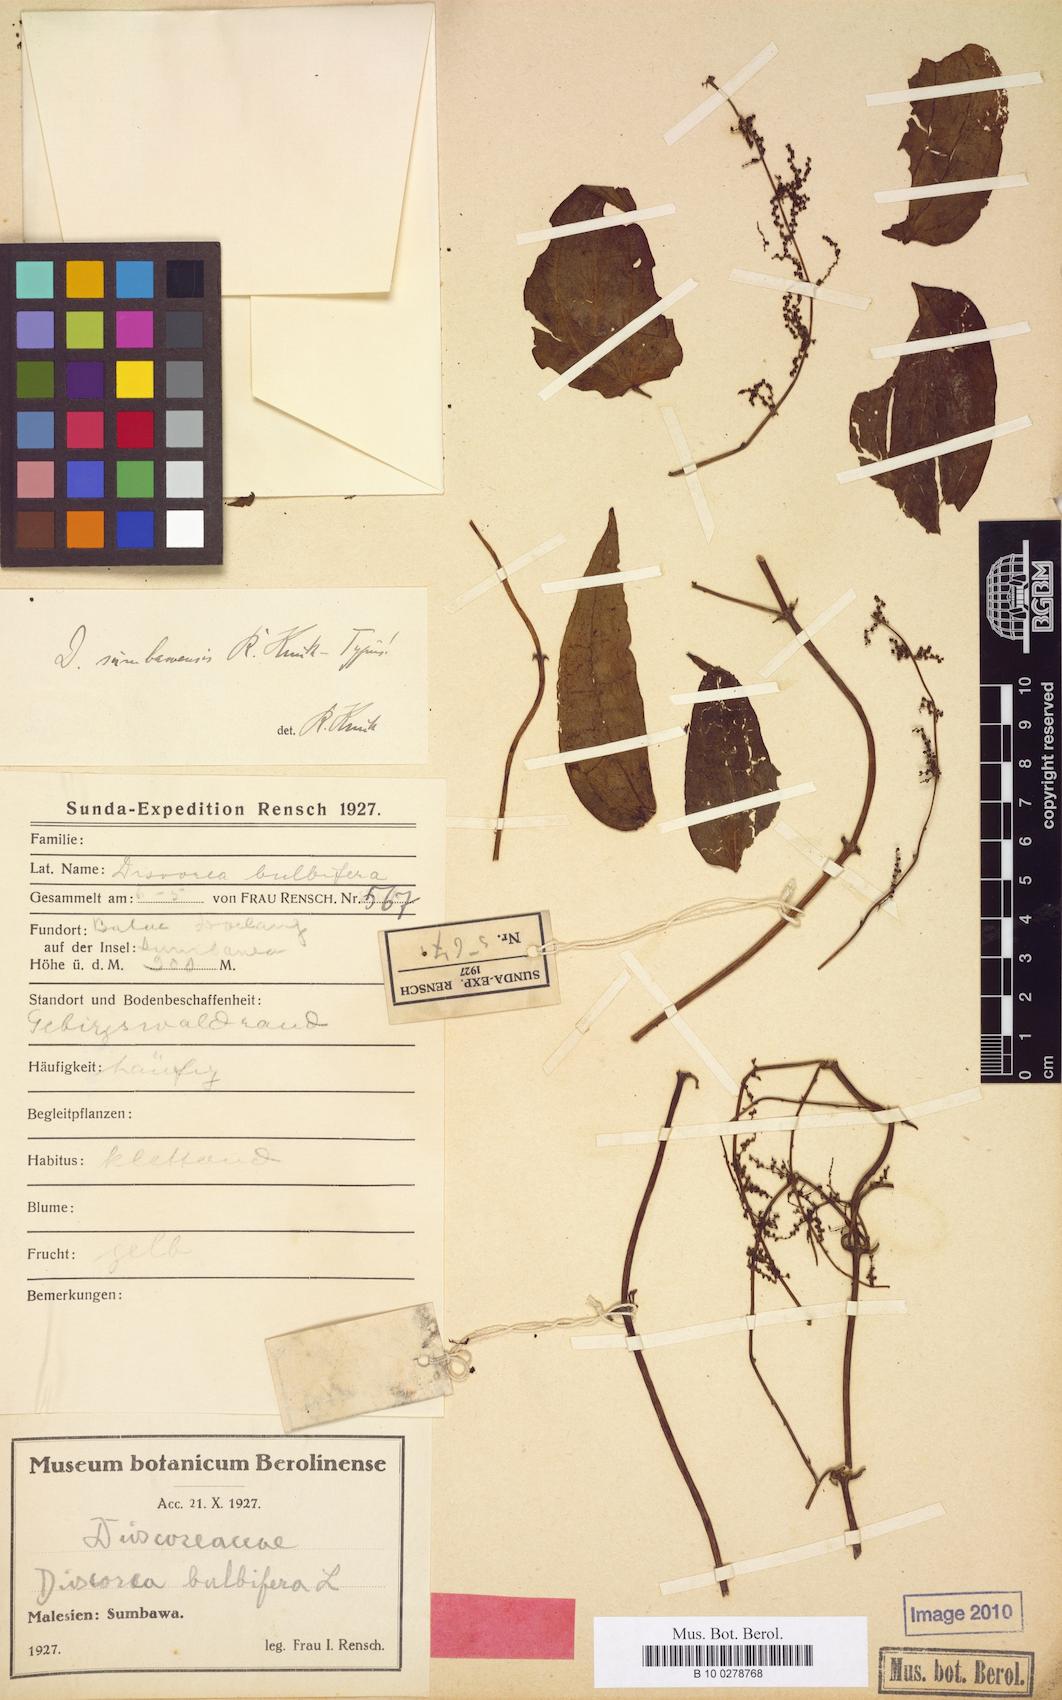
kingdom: Plantae
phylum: Tracheophyta
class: Liliopsida
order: Dioscoreales
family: Dioscoreaceae
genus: Dioscorea
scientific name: Dioscorea pentaphylla
